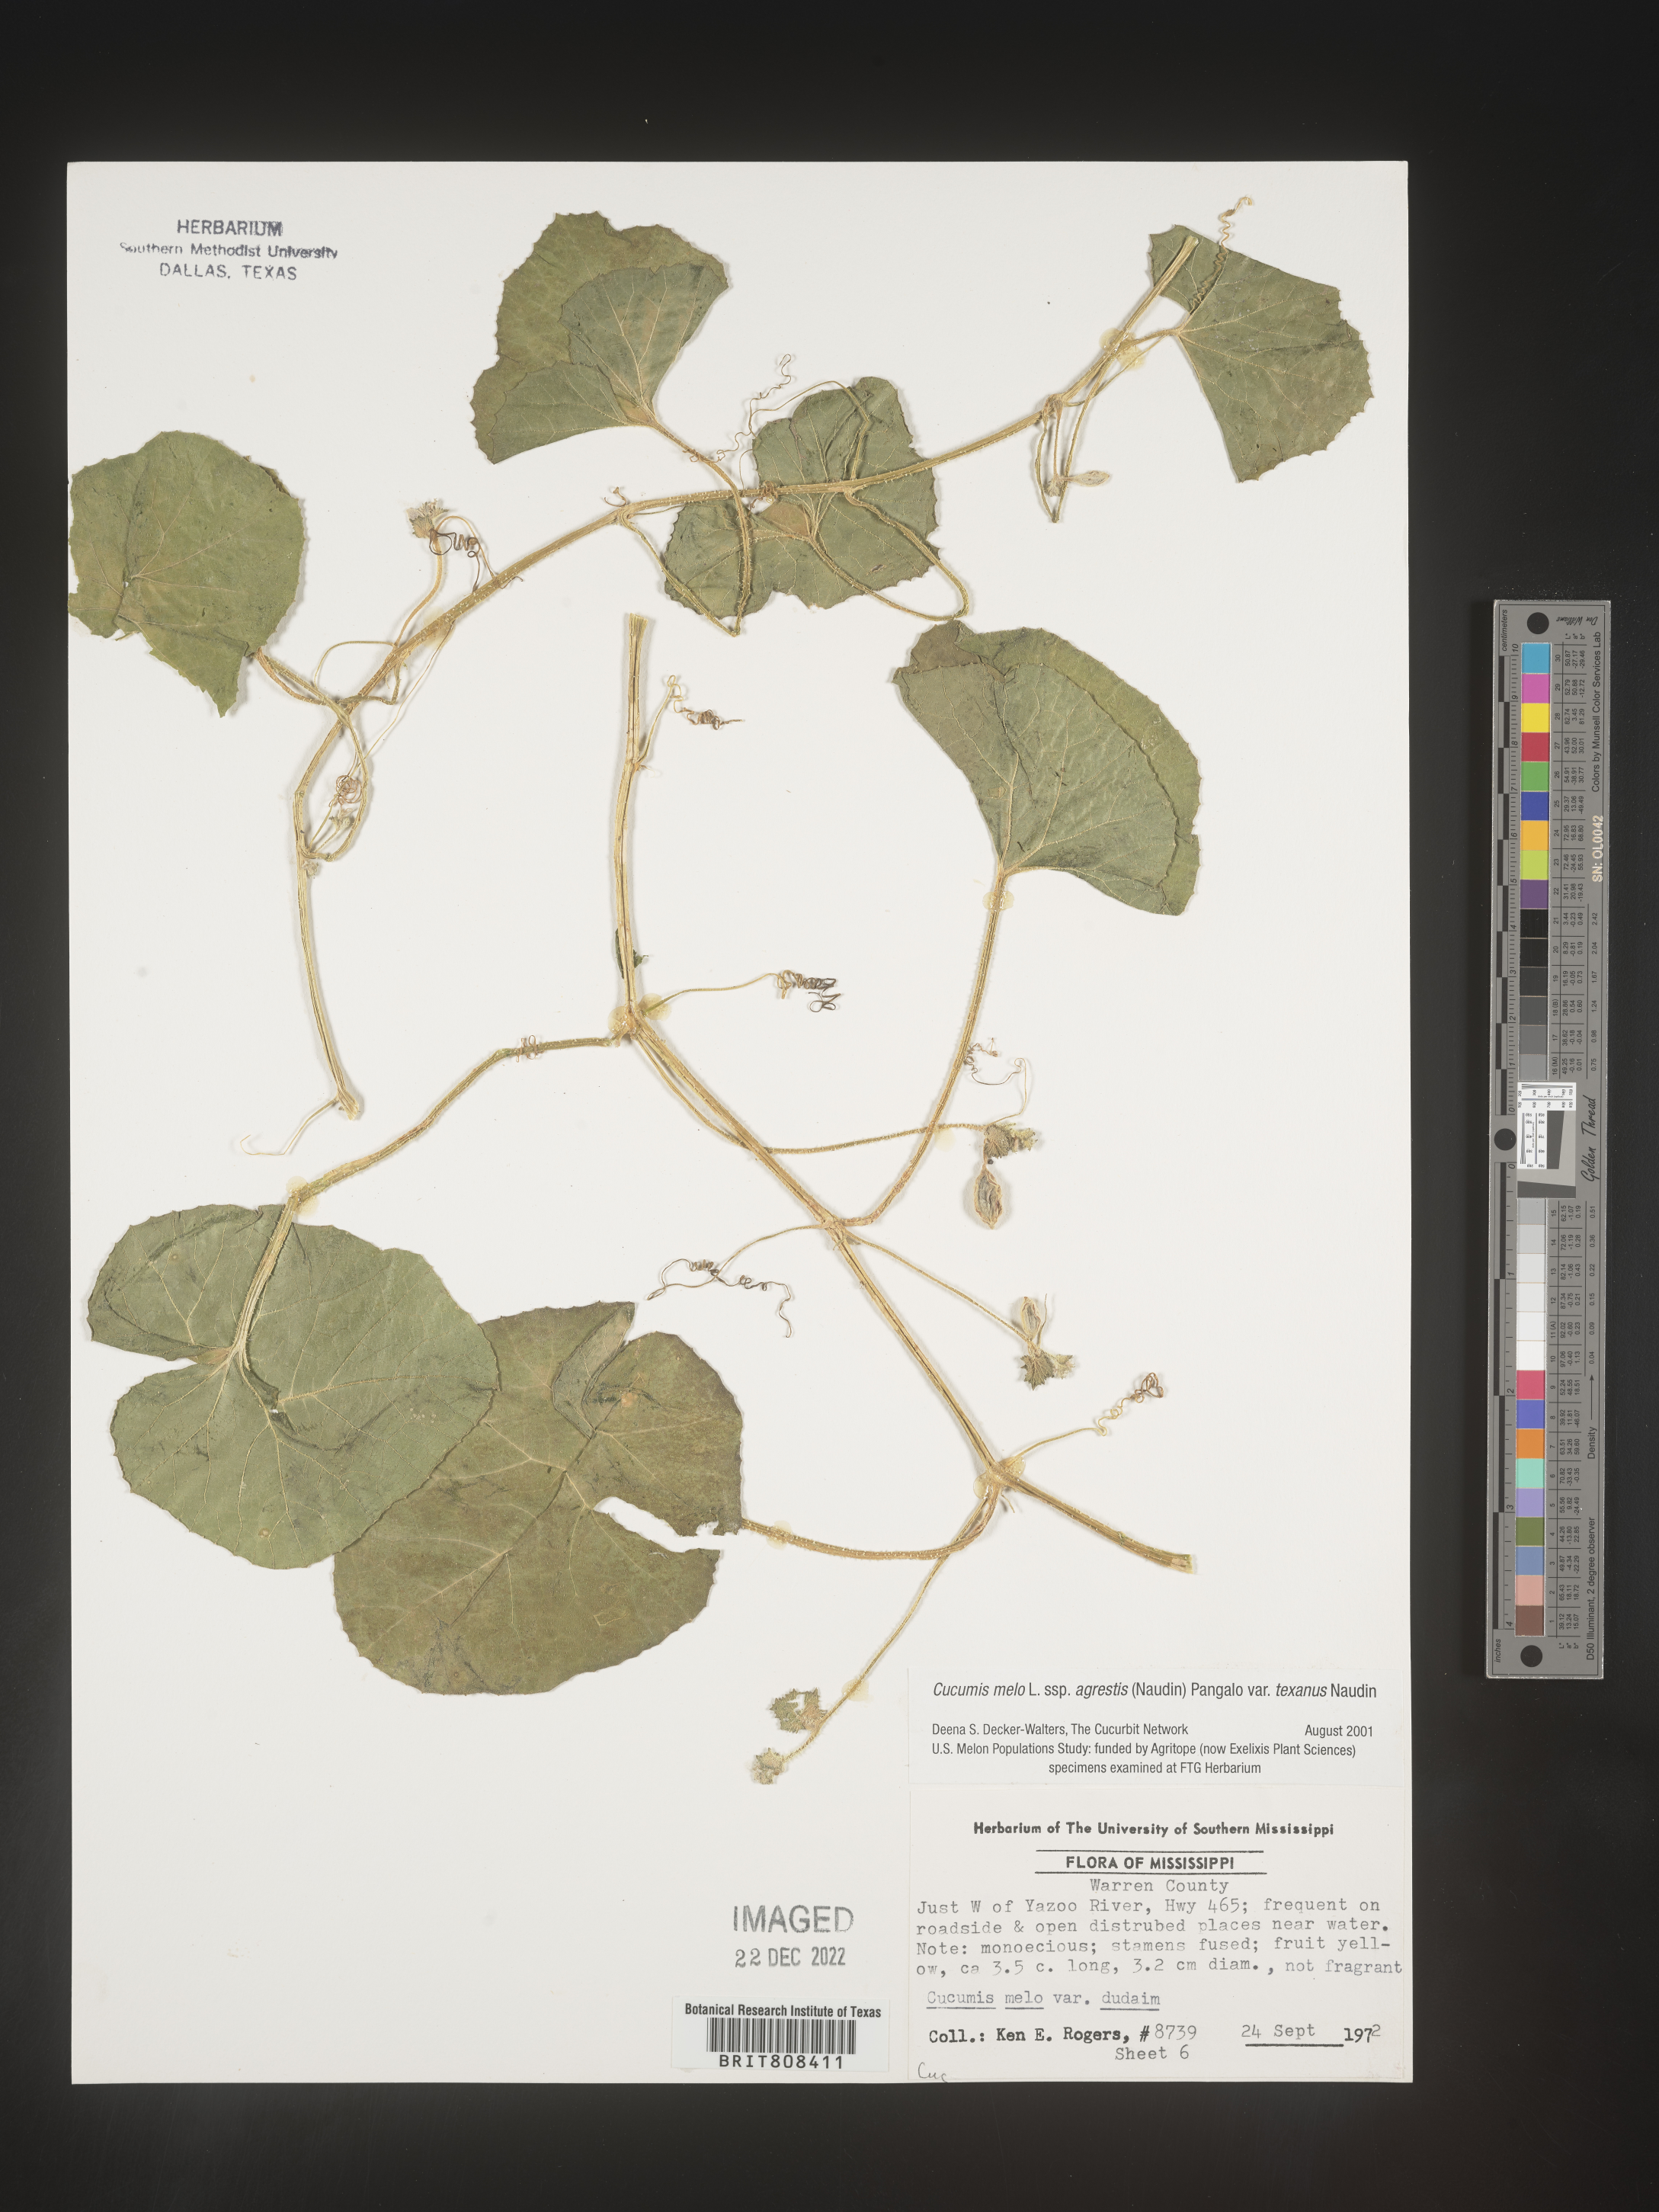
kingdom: Plantae
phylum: Tracheophyta
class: Magnoliopsida
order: Cucurbitales
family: Cucurbitaceae
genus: Cucumis
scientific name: Cucumis
